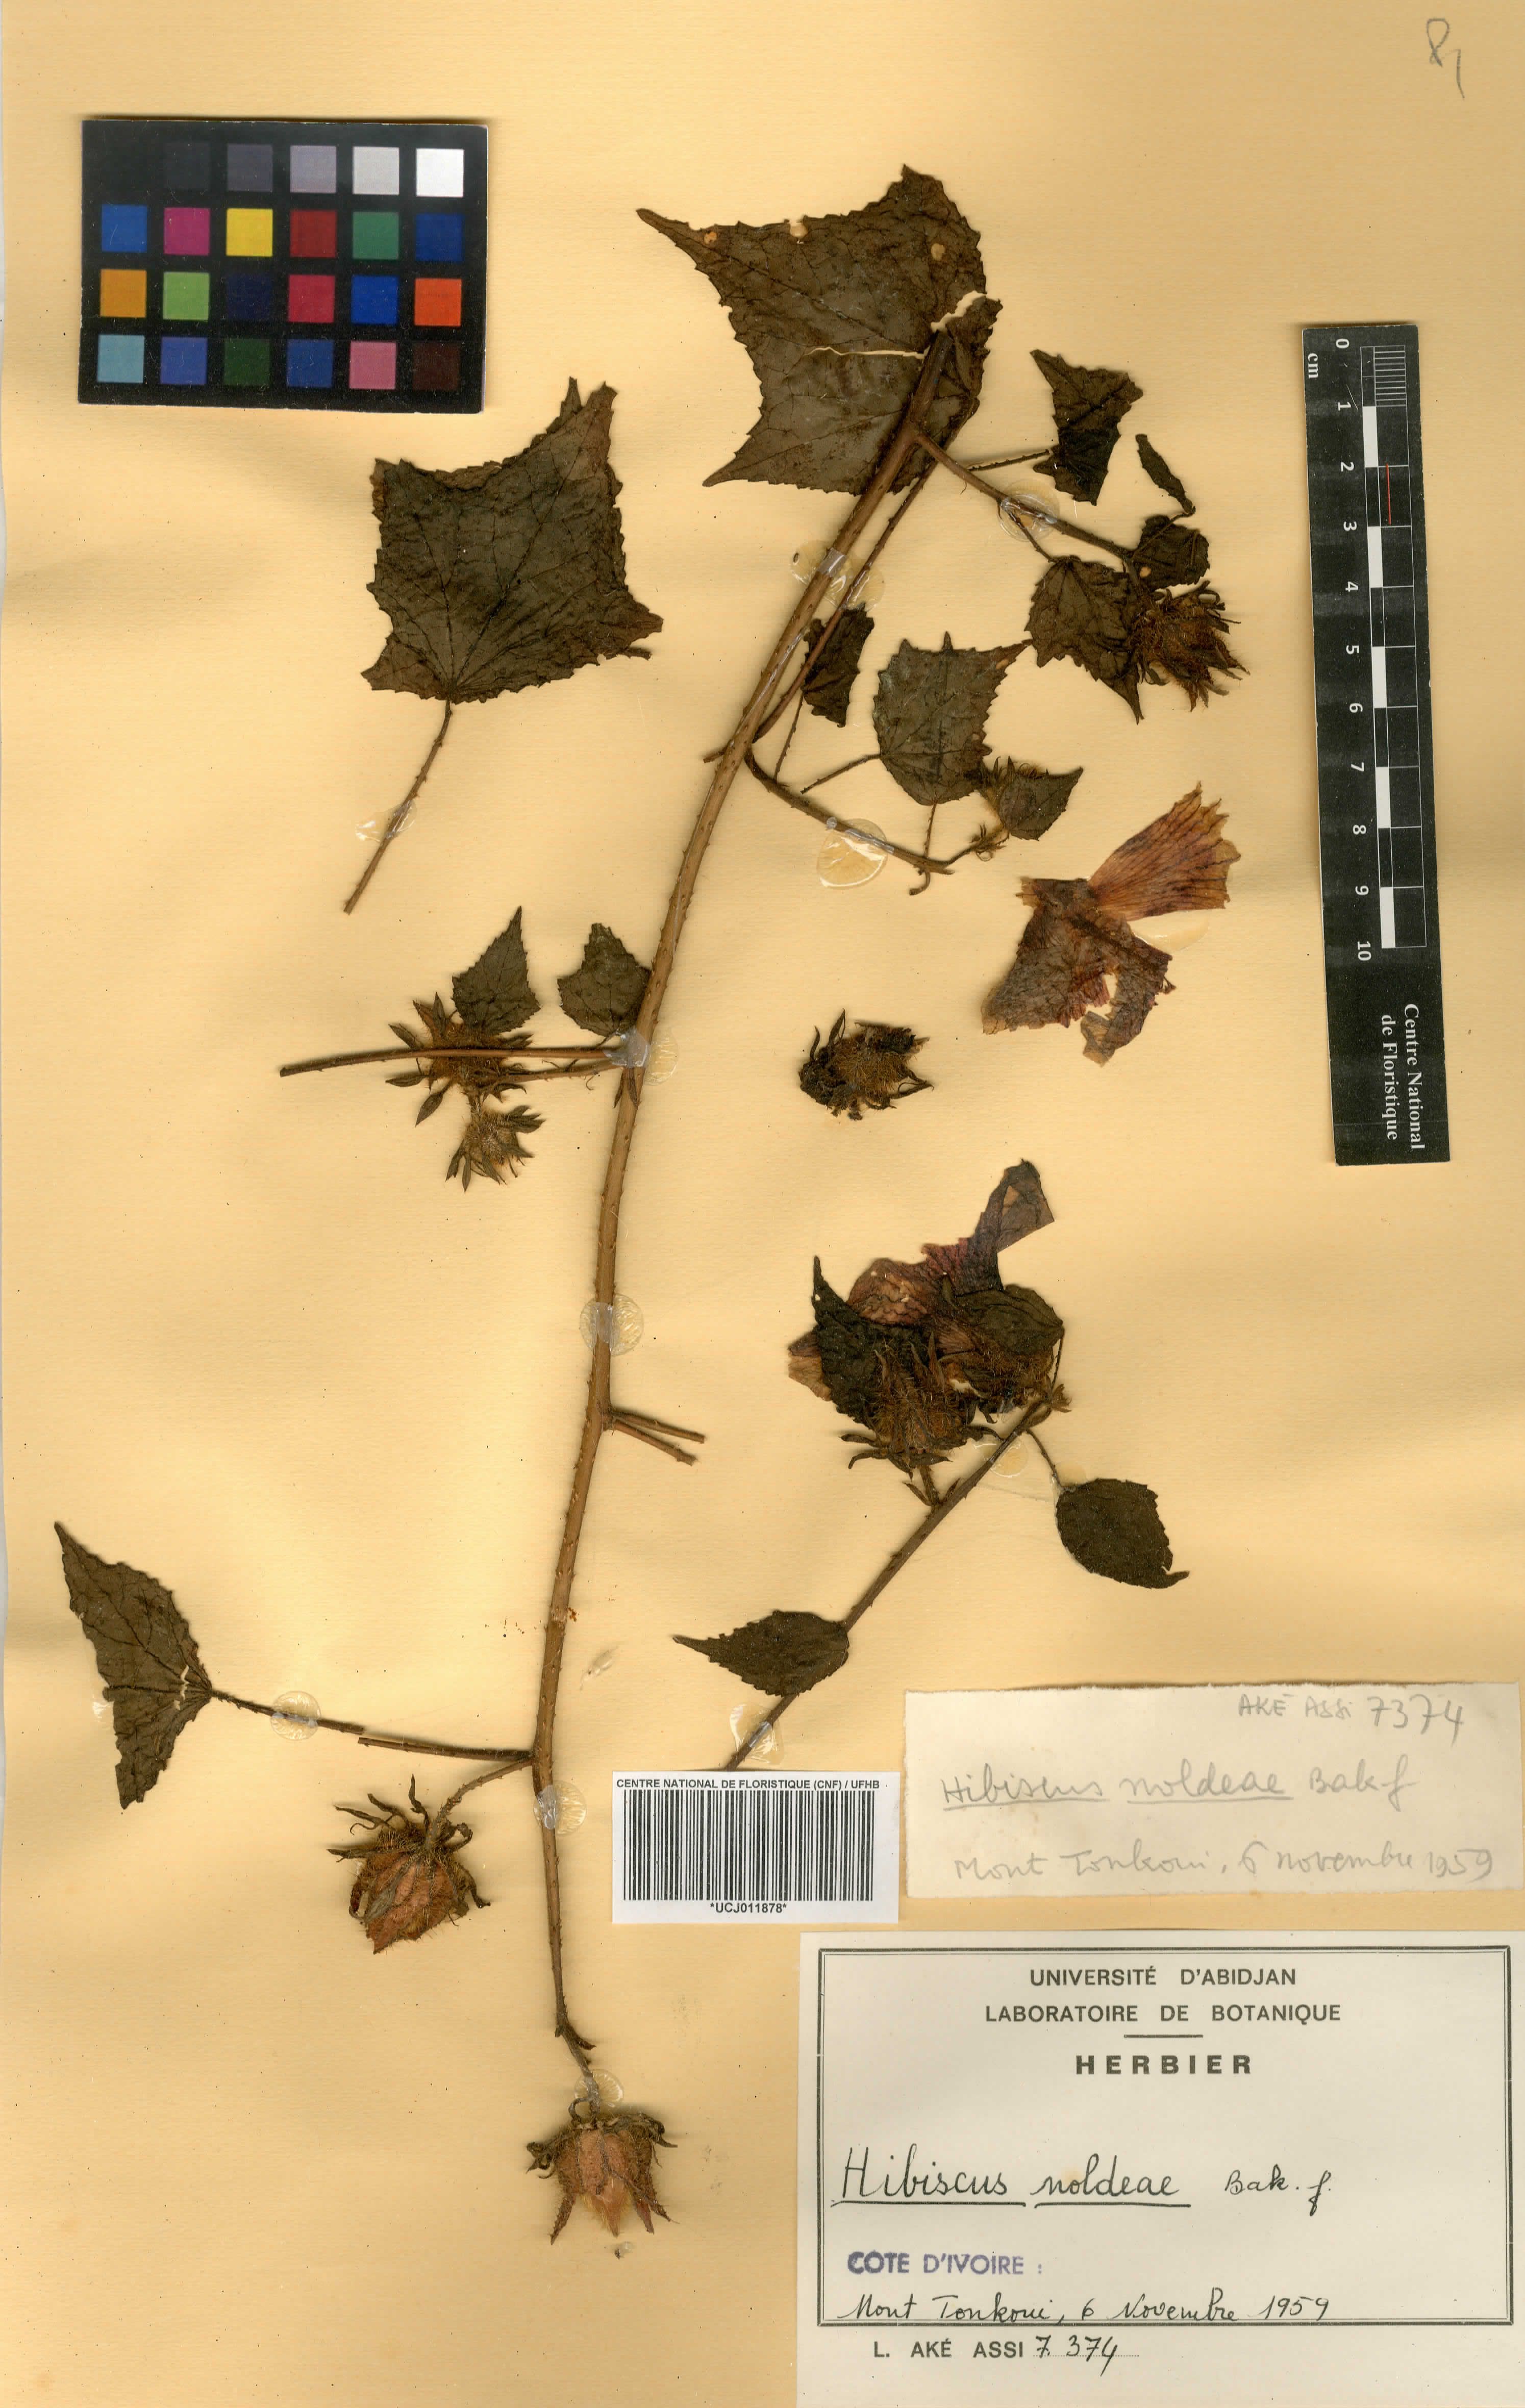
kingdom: Plantae
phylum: Tracheophyta
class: Magnoliopsida
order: Malvales
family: Malvaceae
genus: Hibiscus
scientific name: Hibiscus noldeae
